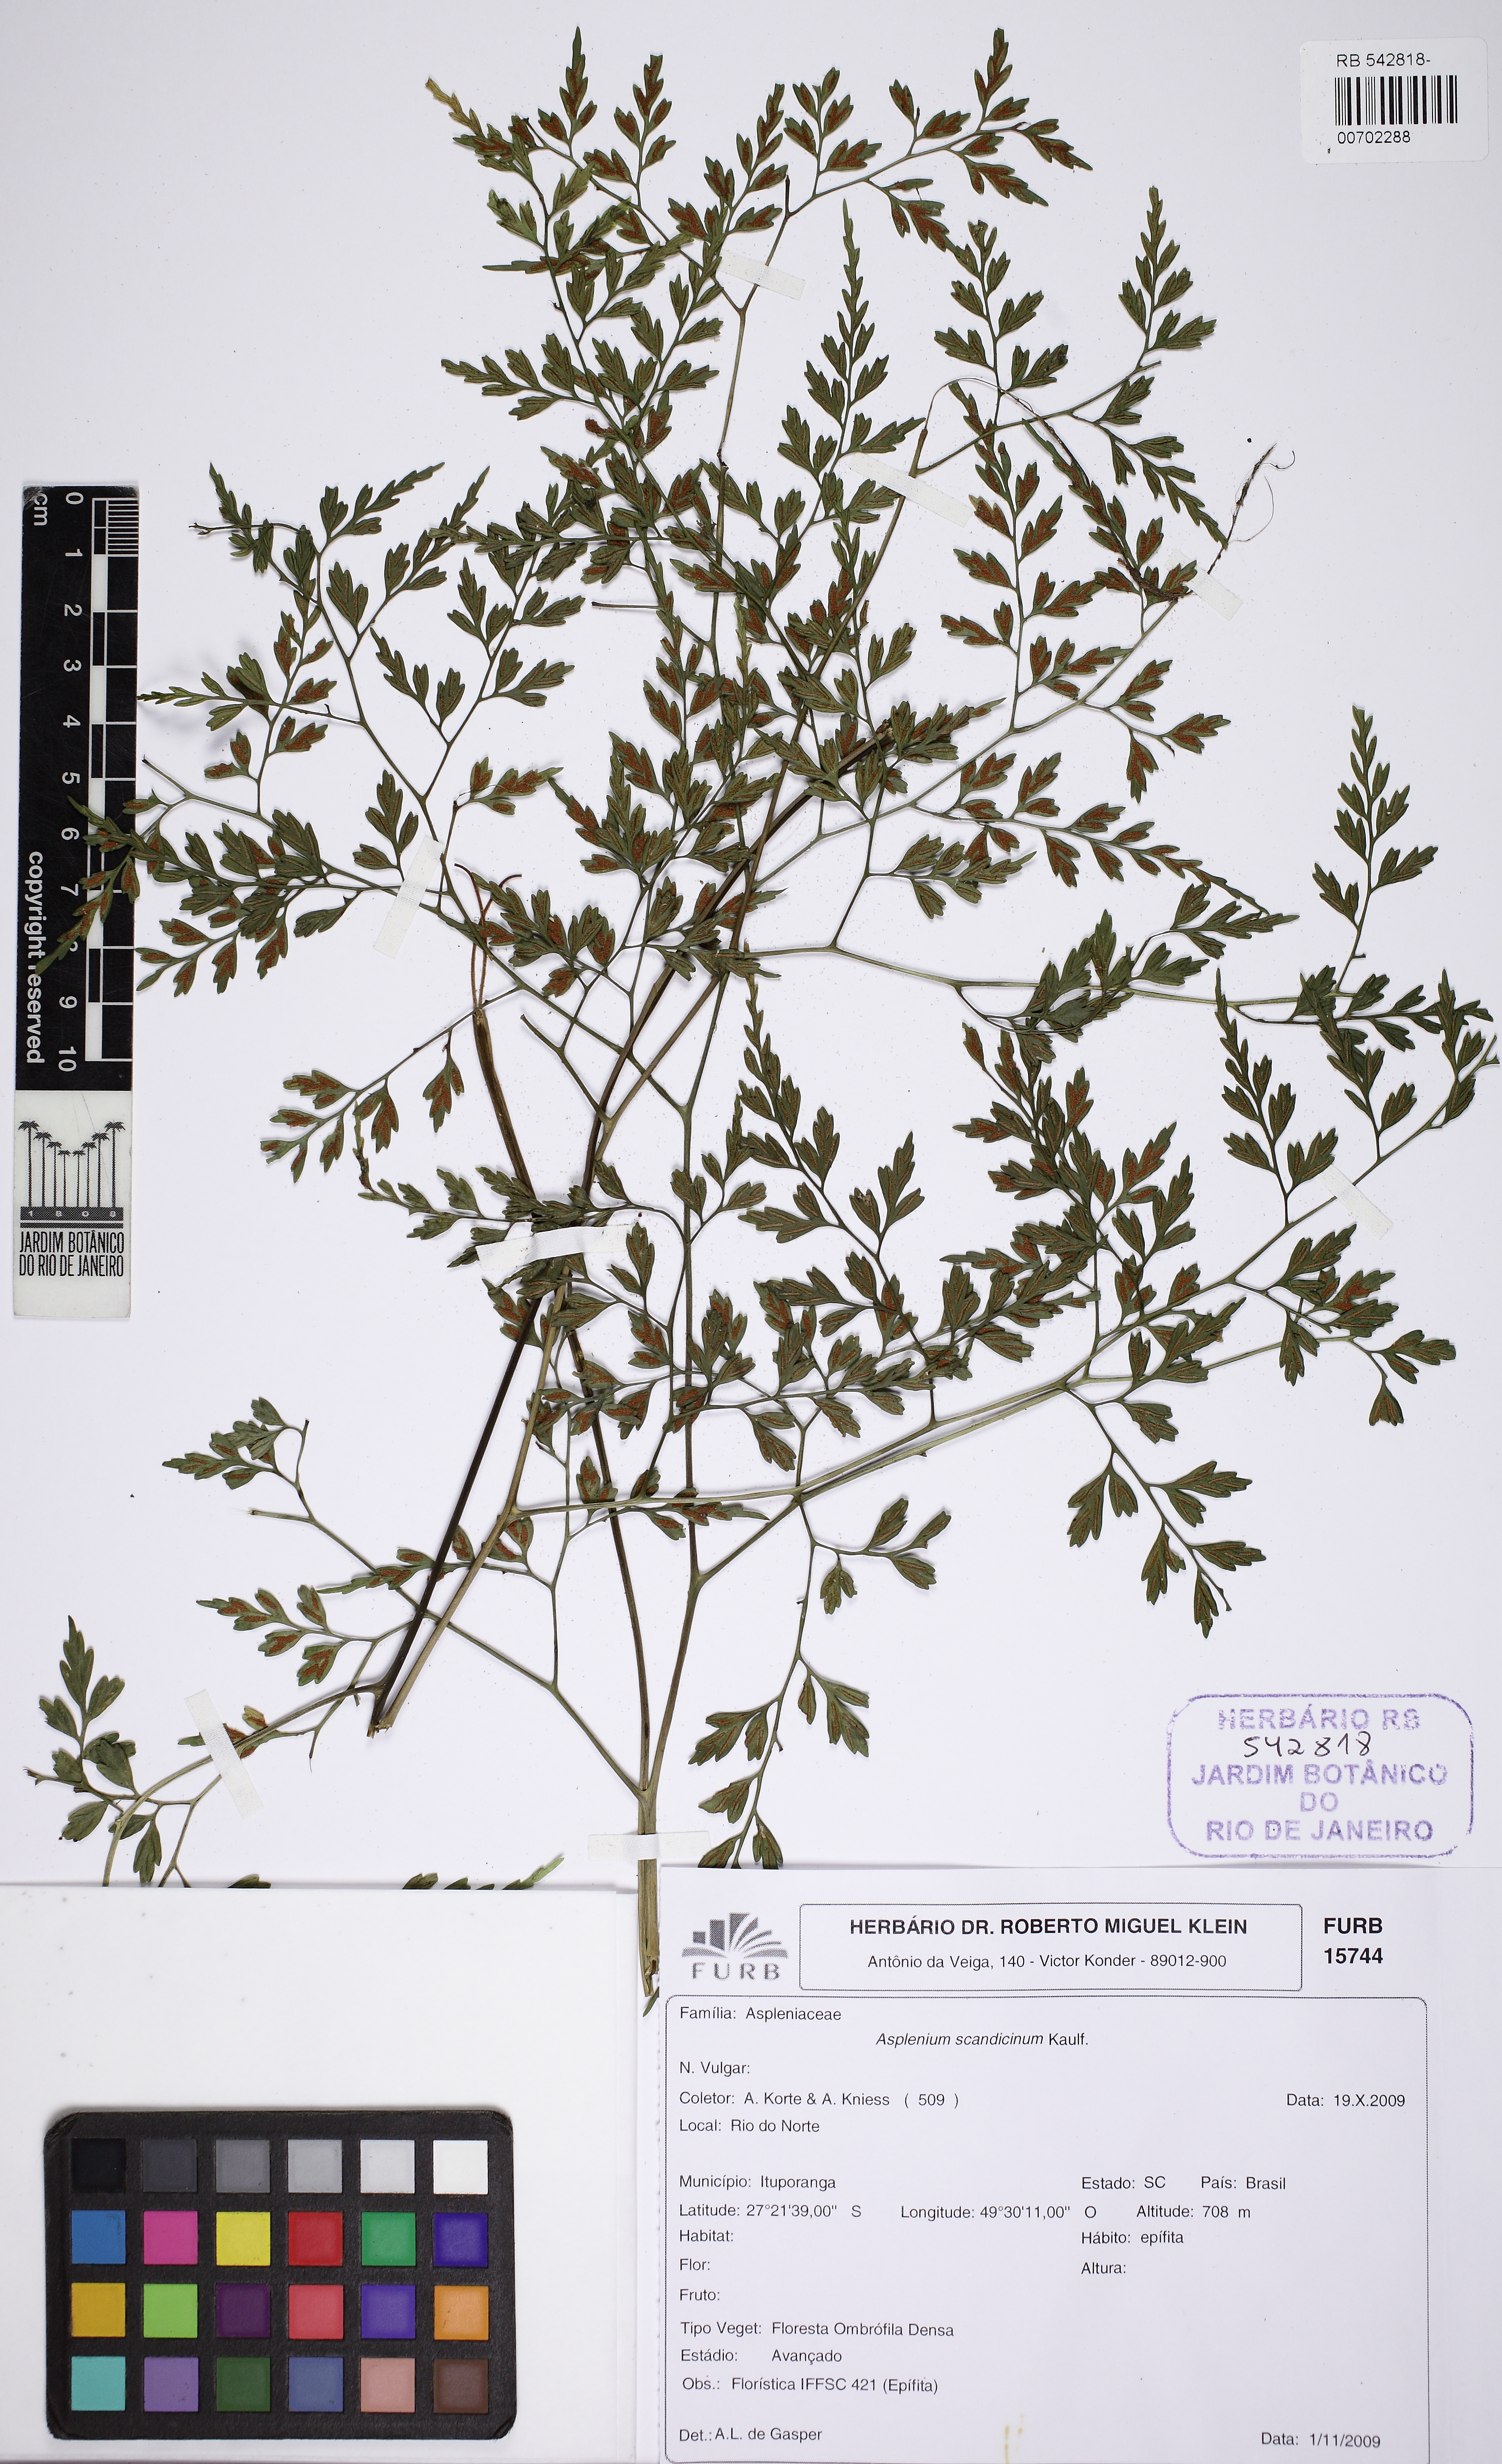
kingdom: Plantae
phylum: Tracheophyta
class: Polypodiopsida
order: Polypodiales
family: Aspleniaceae
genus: Asplenium
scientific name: Asplenium scandicinum
